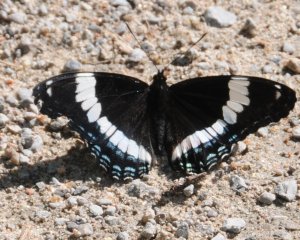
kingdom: Animalia
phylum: Arthropoda
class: Insecta
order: Lepidoptera
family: Nymphalidae
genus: Limenitis
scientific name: Limenitis arthemis
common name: Red-spotted Admiral
